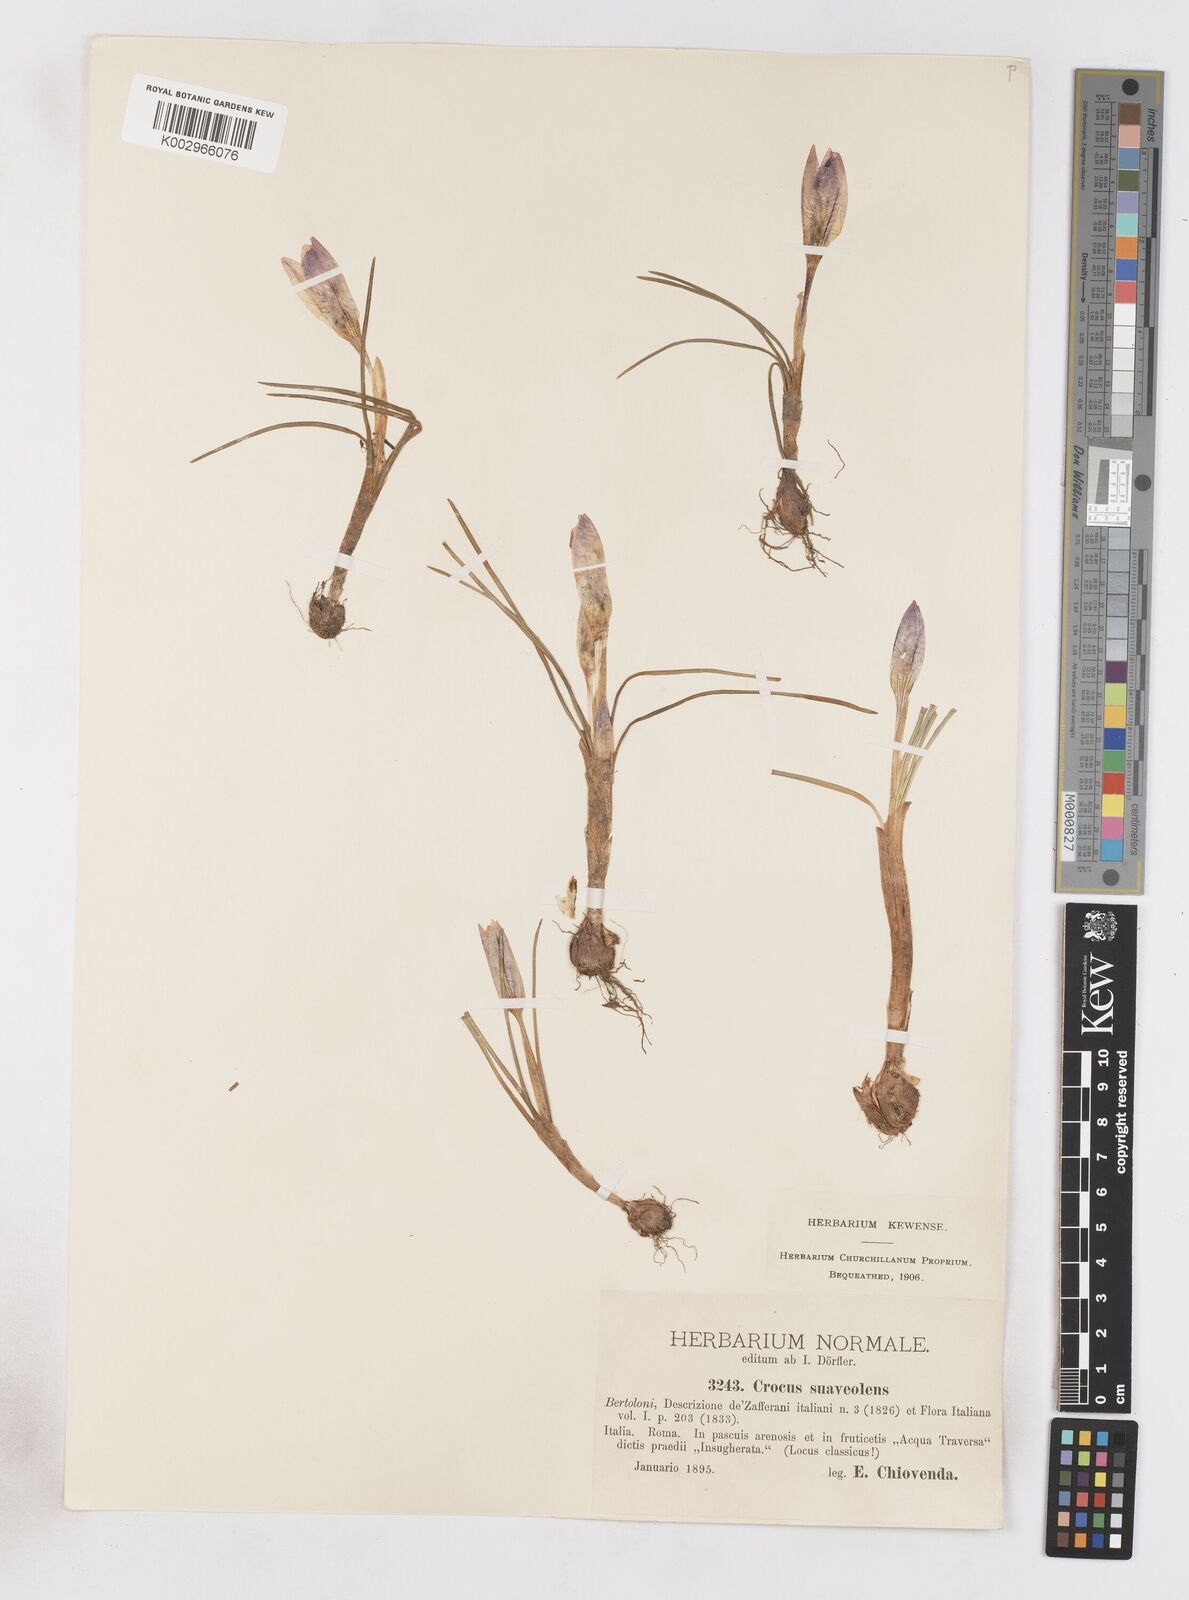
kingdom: Plantae
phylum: Tracheophyta
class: Liliopsida
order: Asparagales
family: Iridaceae
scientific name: Iridaceae
